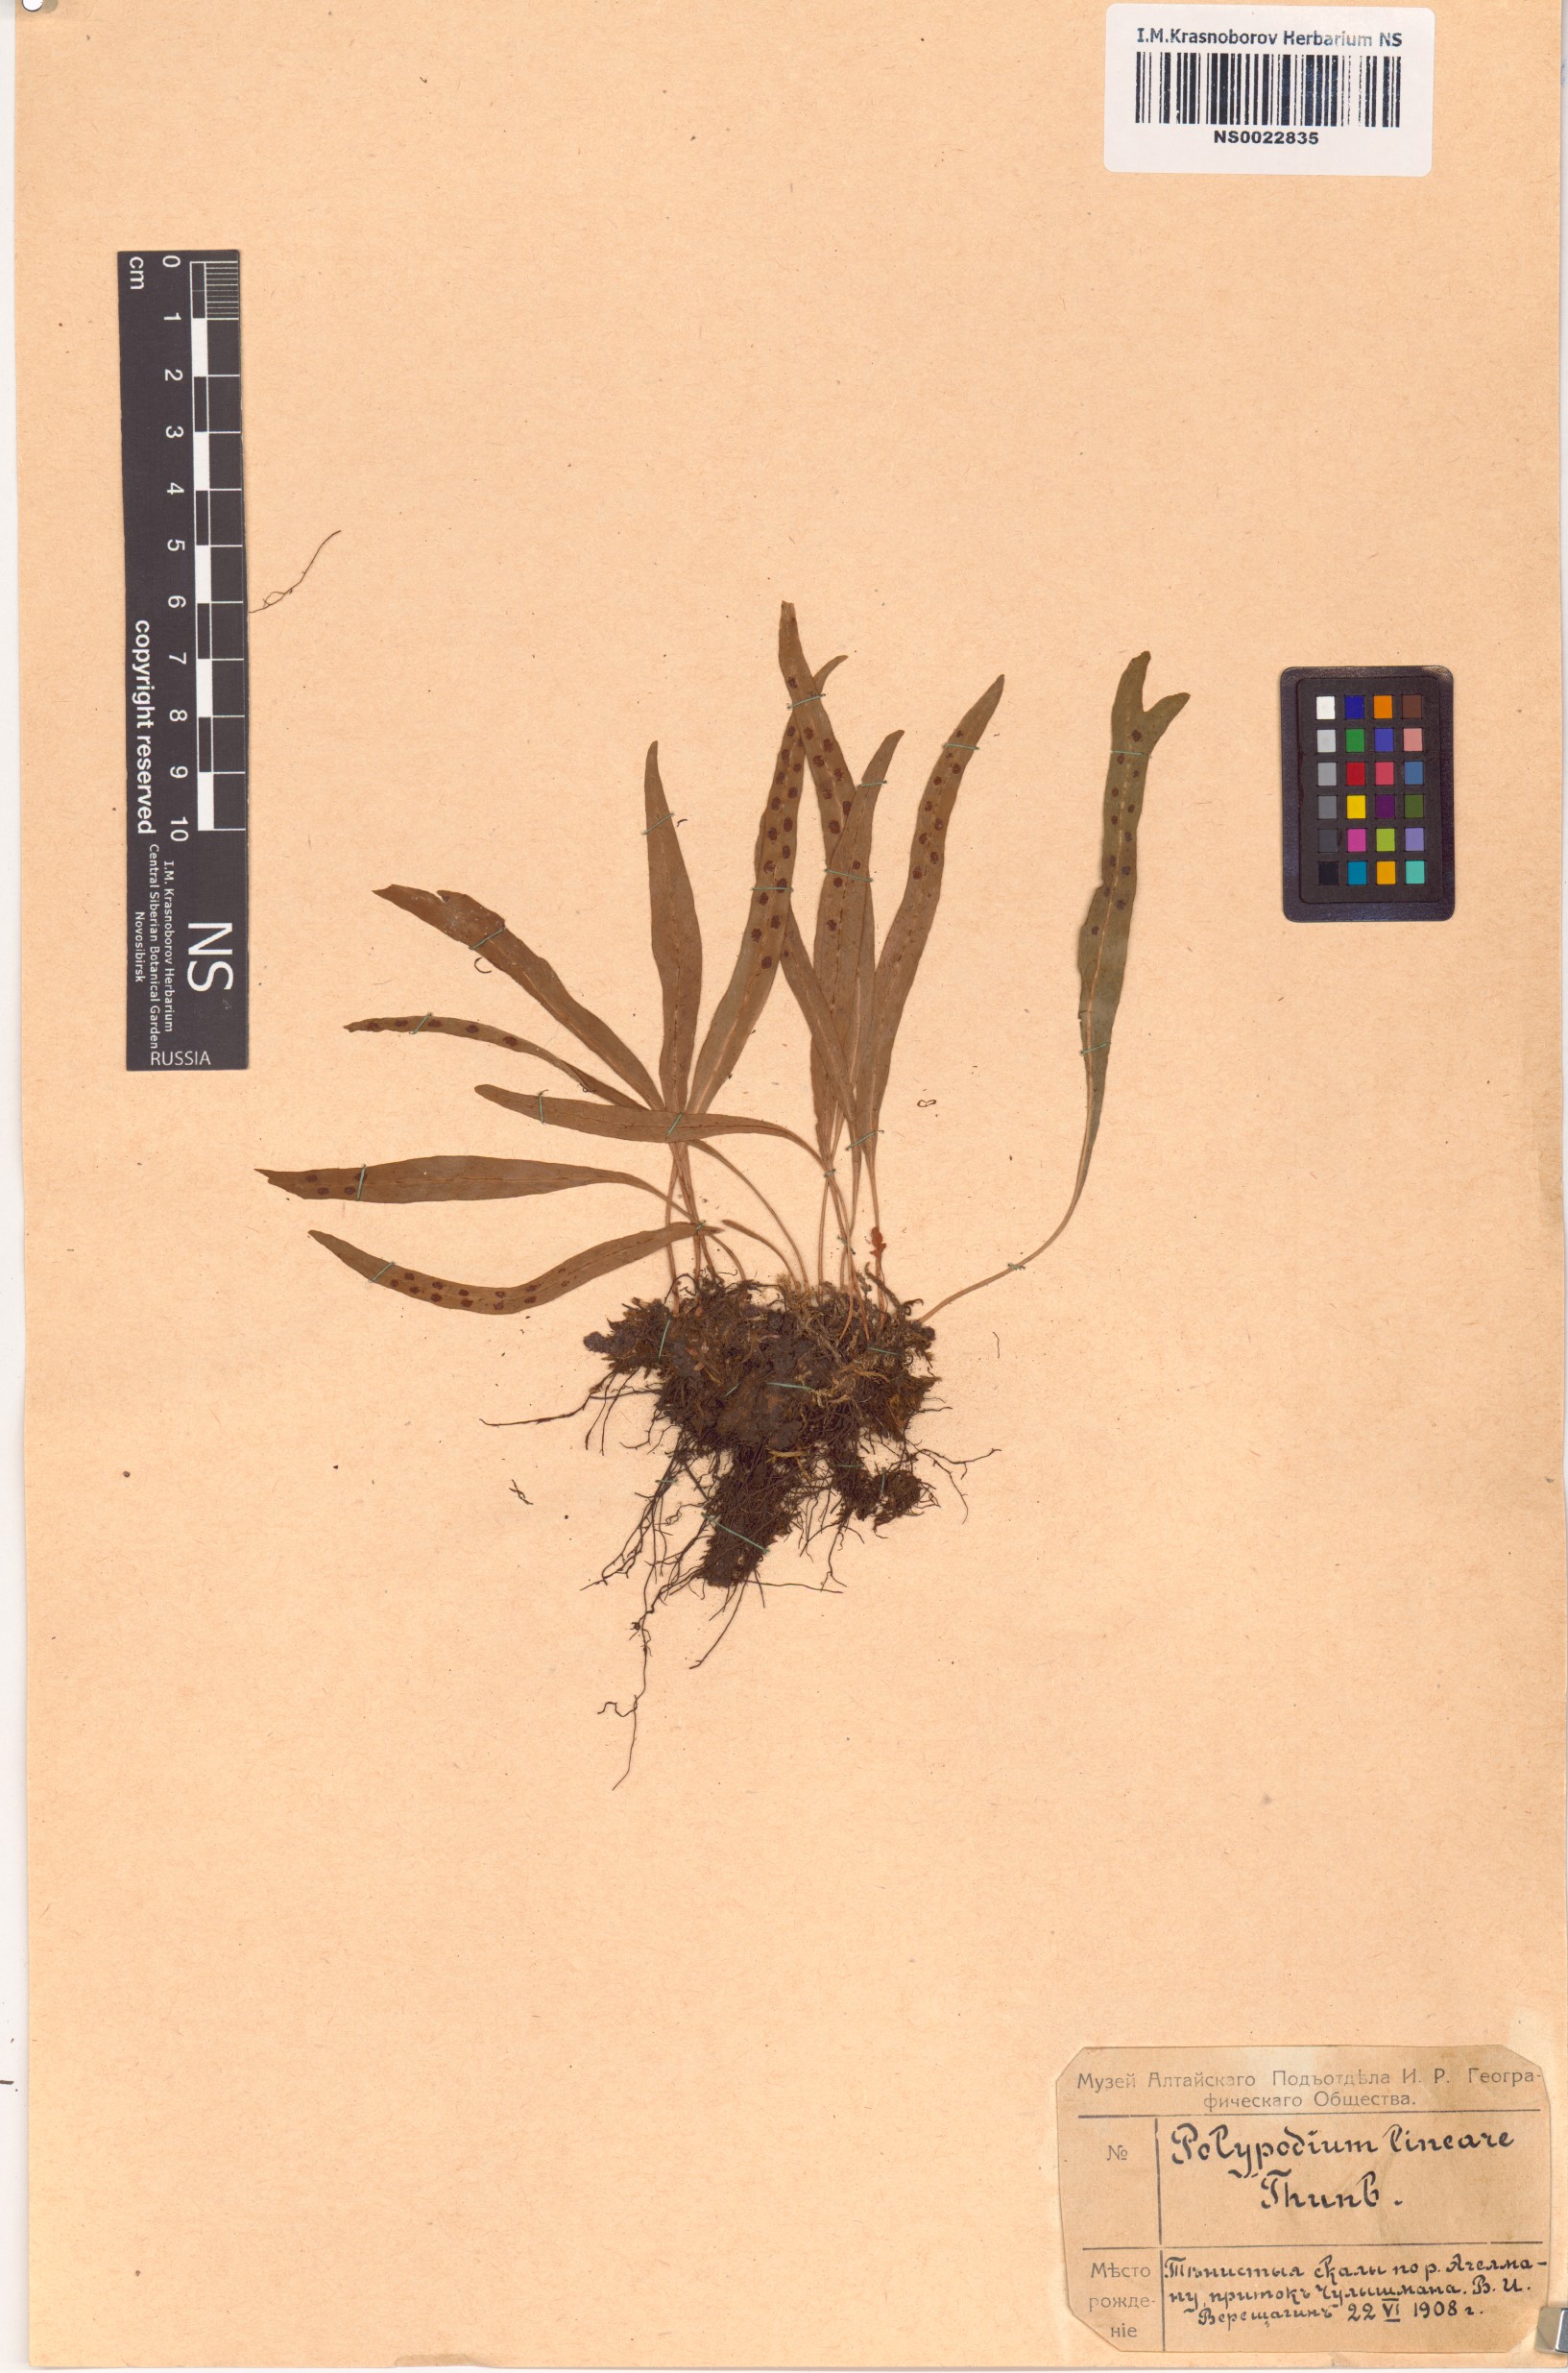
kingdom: Plantae
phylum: Tracheophyta
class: Polypodiopsida
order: Polypodiales
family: Polypodiaceae
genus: Lepisorus
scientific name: Lepisorus thunbergianus
